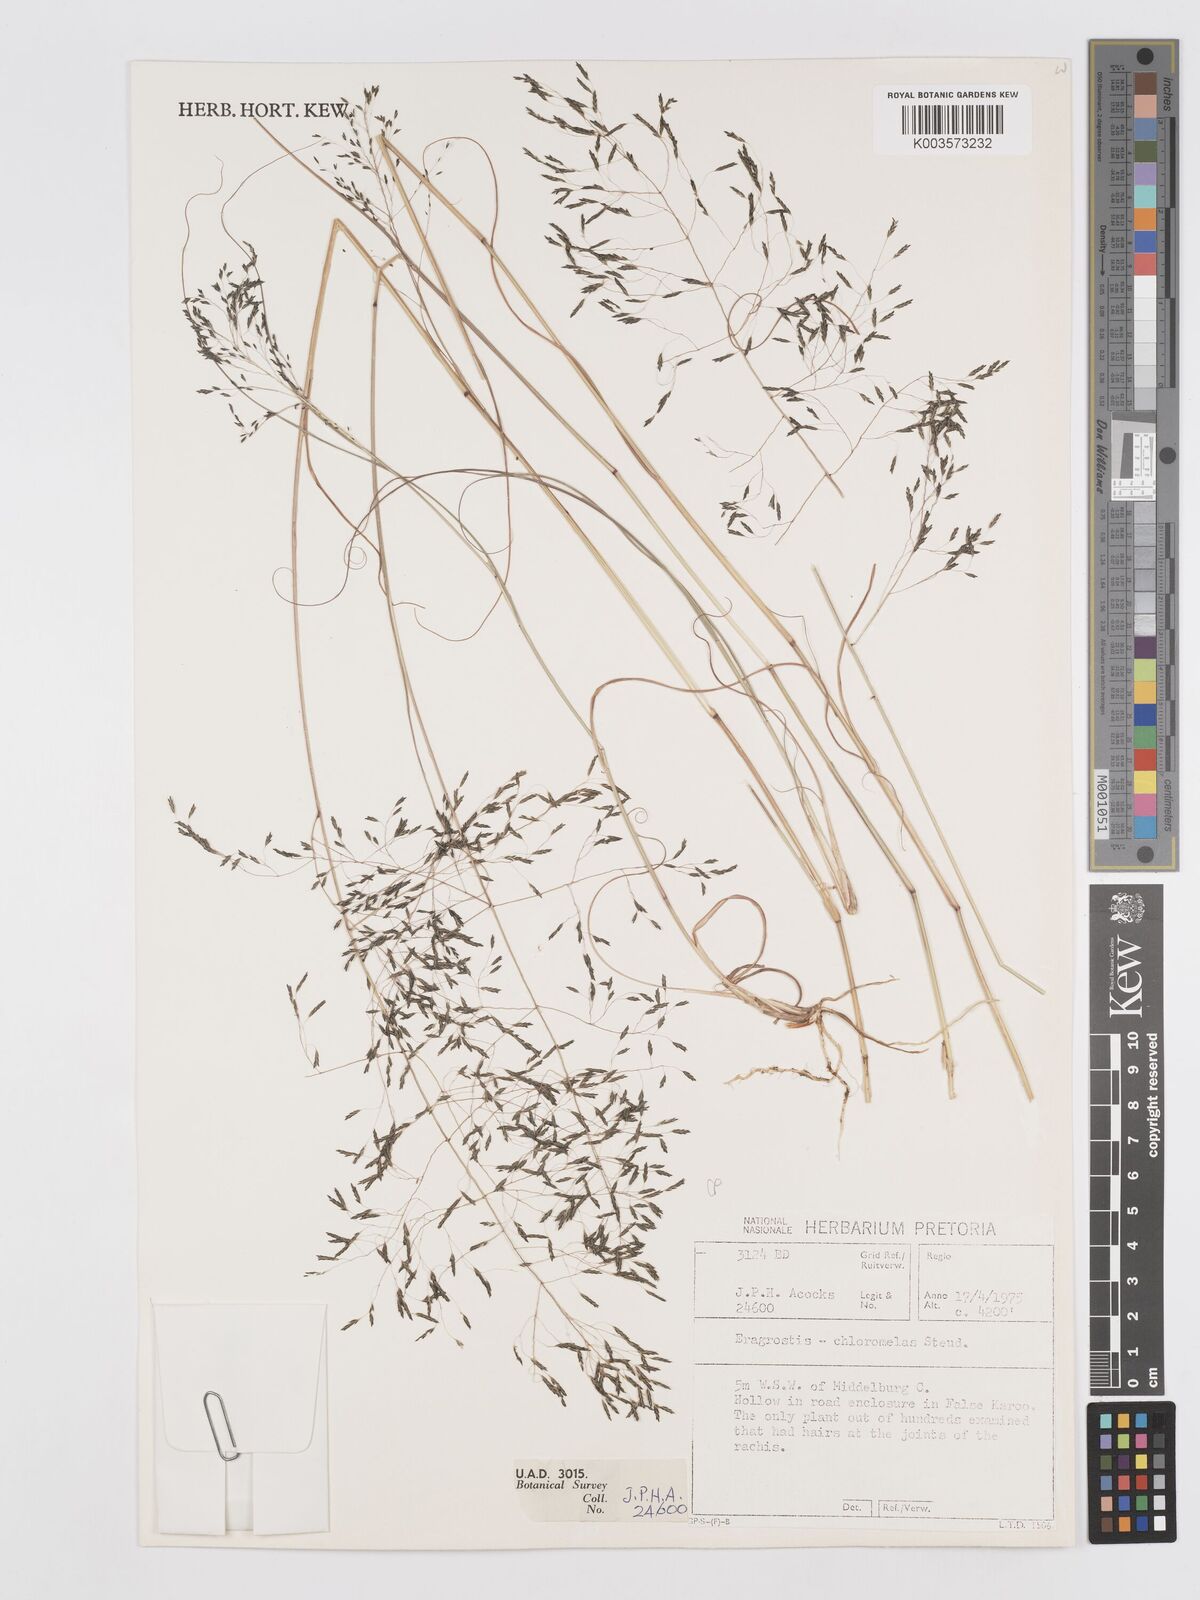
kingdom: Plantae
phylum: Tracheophyta
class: Liliopsida
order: Poales
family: Poaceae
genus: Eragrostis
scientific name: Eragrostis curvula
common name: African love-grass
